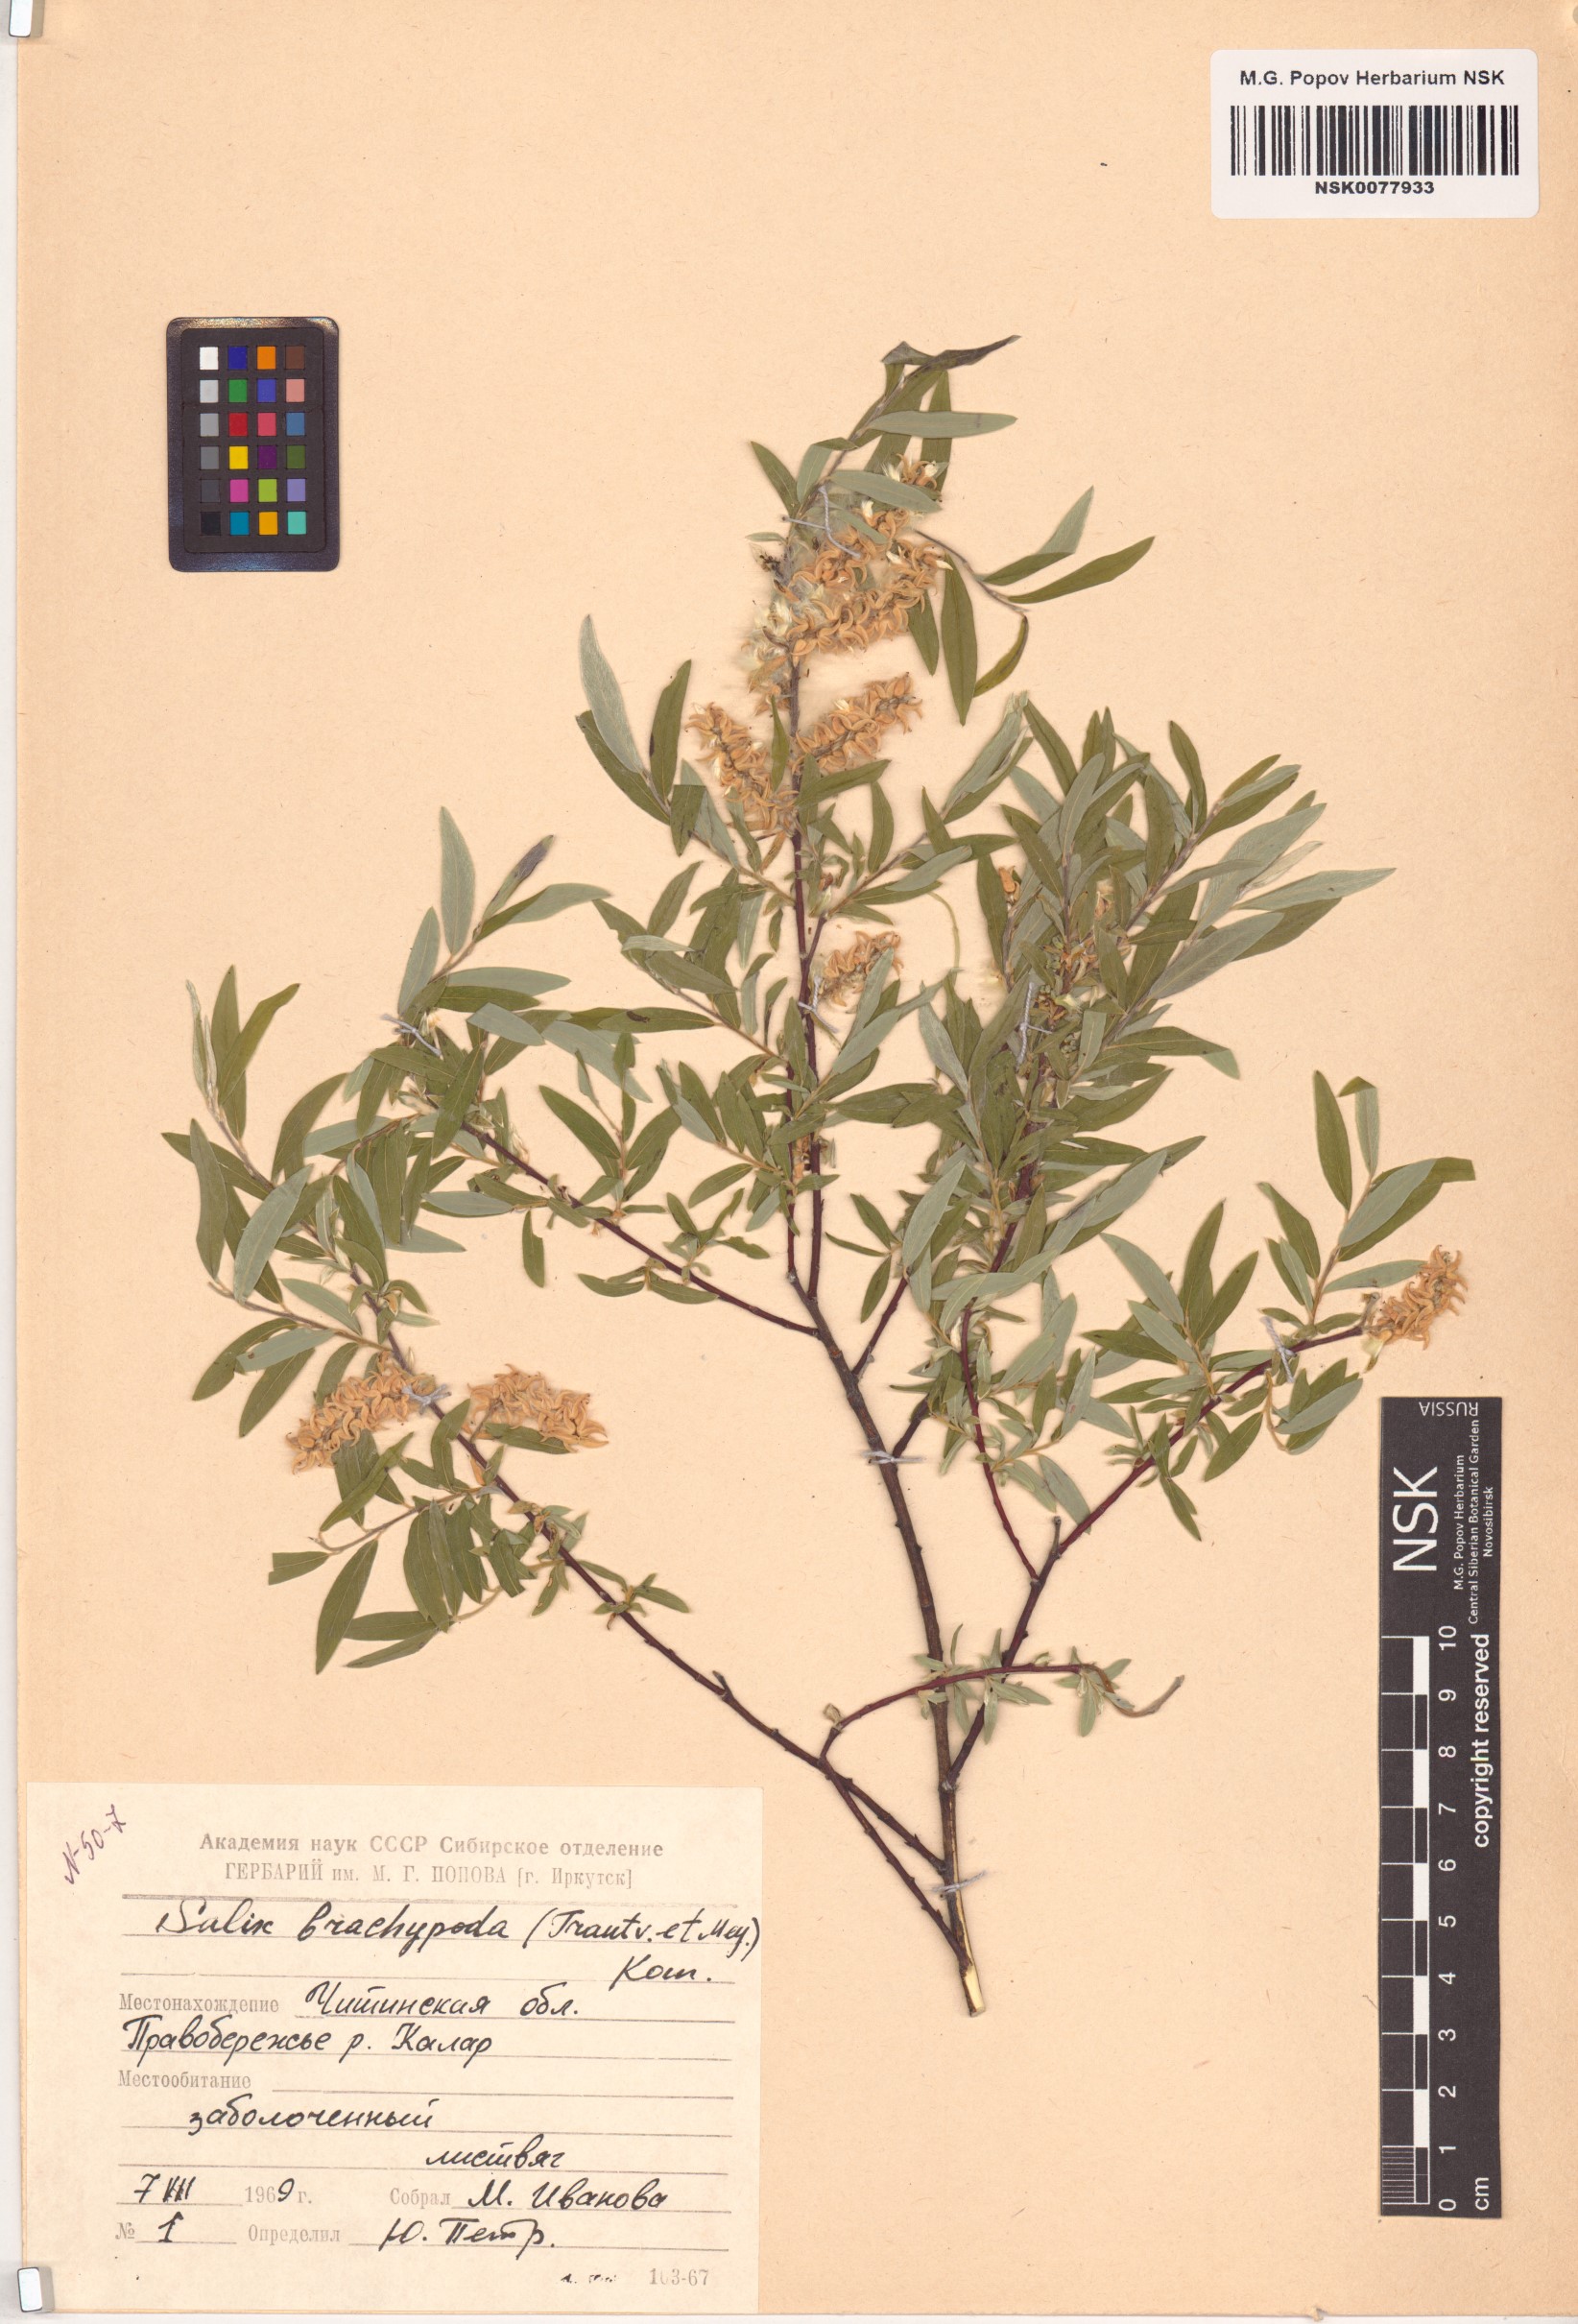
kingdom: Plantae
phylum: Tracheophyta
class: Magnoliopsida
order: Malpighiales
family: Salicaceae
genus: Salix
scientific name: Salix brachypoda
